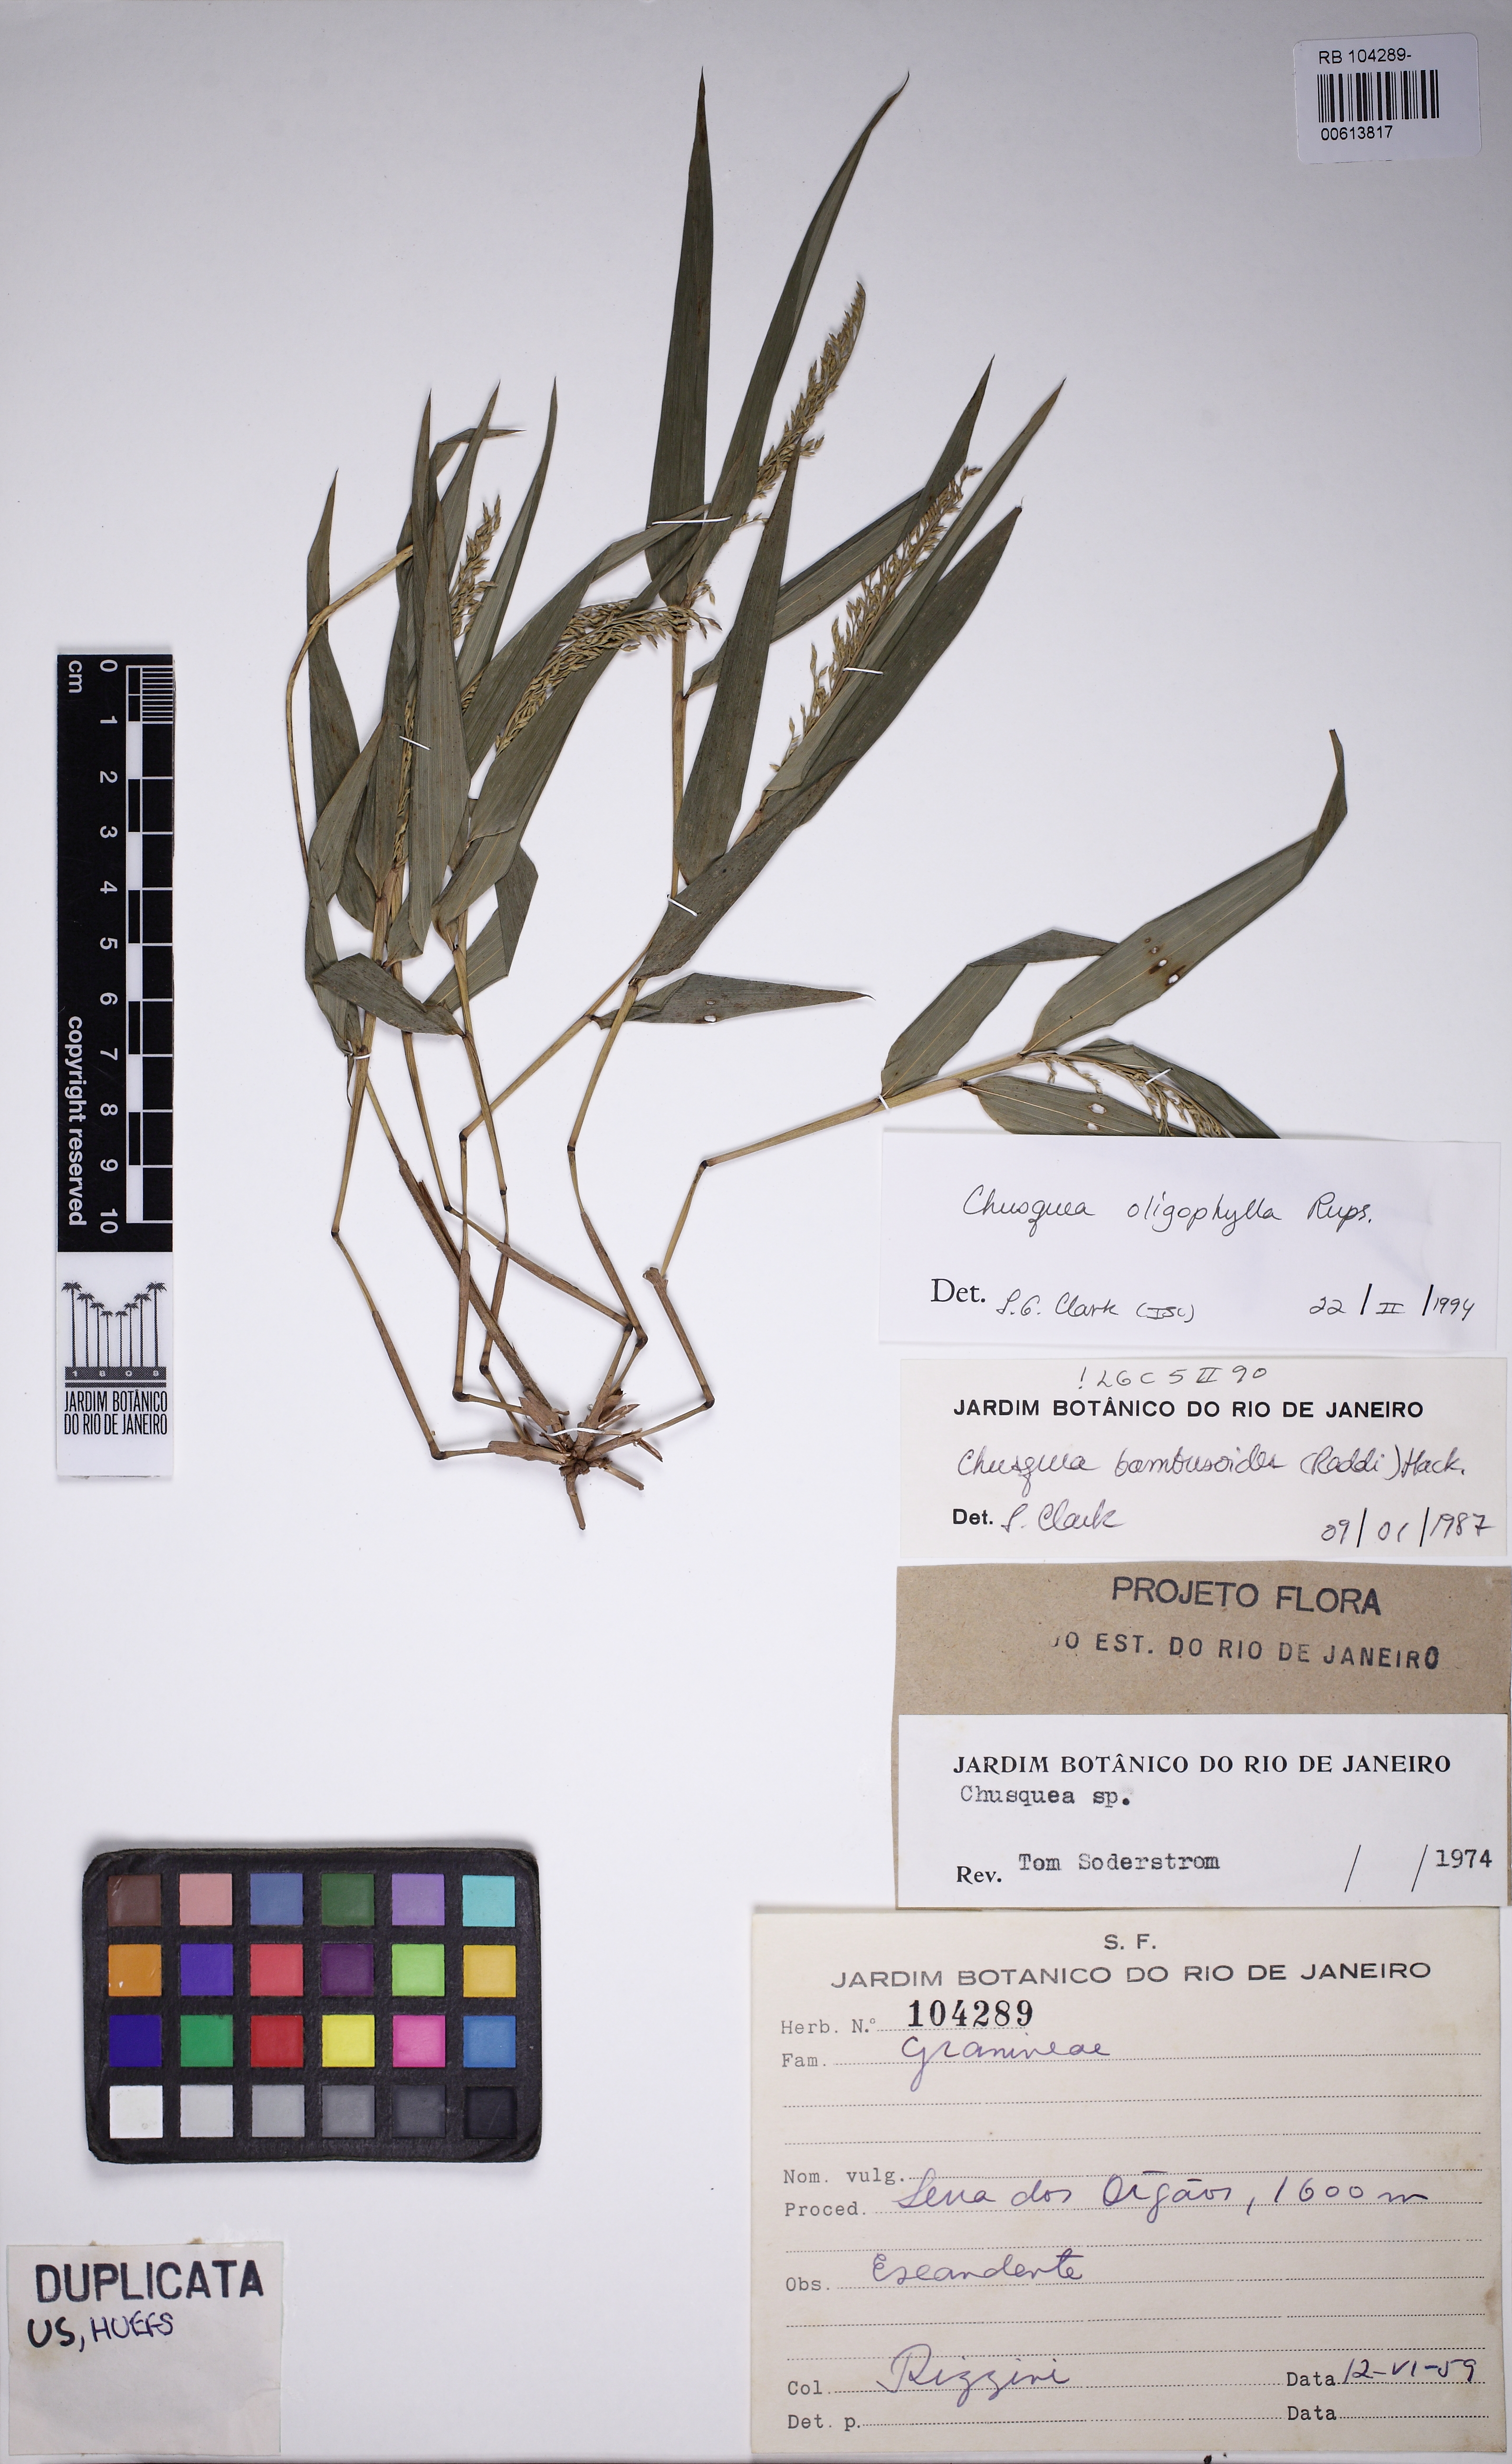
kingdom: Plantae
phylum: Tracheophyta
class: Liliopsida
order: Poales
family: Poaceae
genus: Chusquea
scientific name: Chusquea oligophylla
